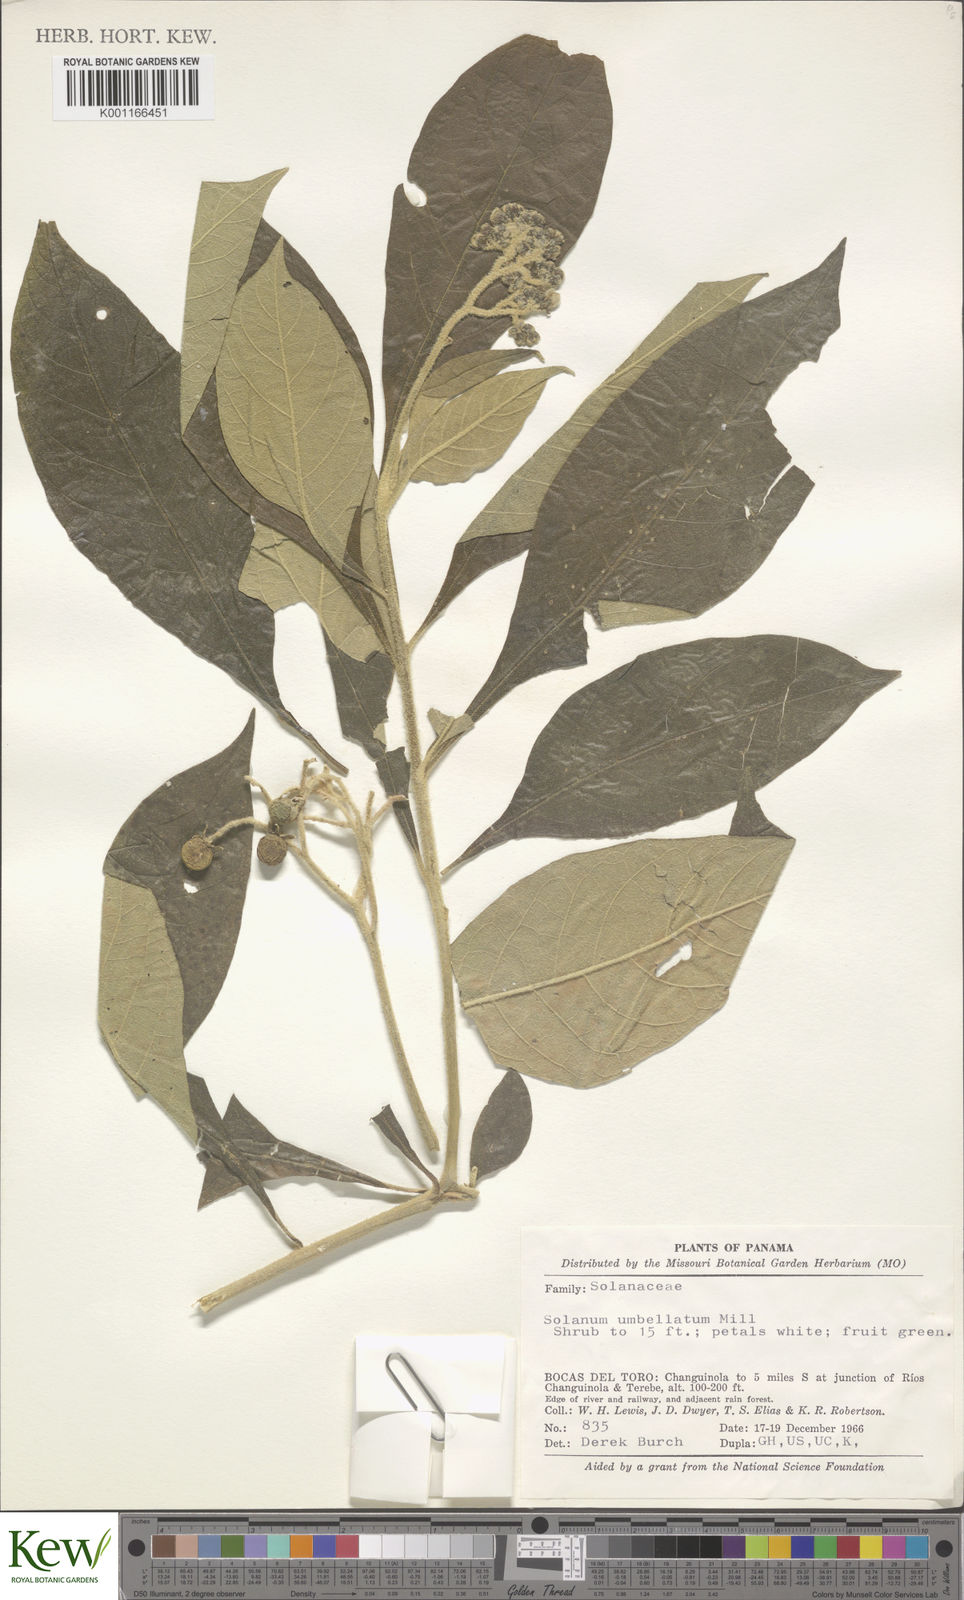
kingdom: Plantae
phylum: Tracheophyta
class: Magnoliopsida
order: Solanales
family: Solanaceae
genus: Solanum
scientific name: Solanum umbellatum
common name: Nightshade
